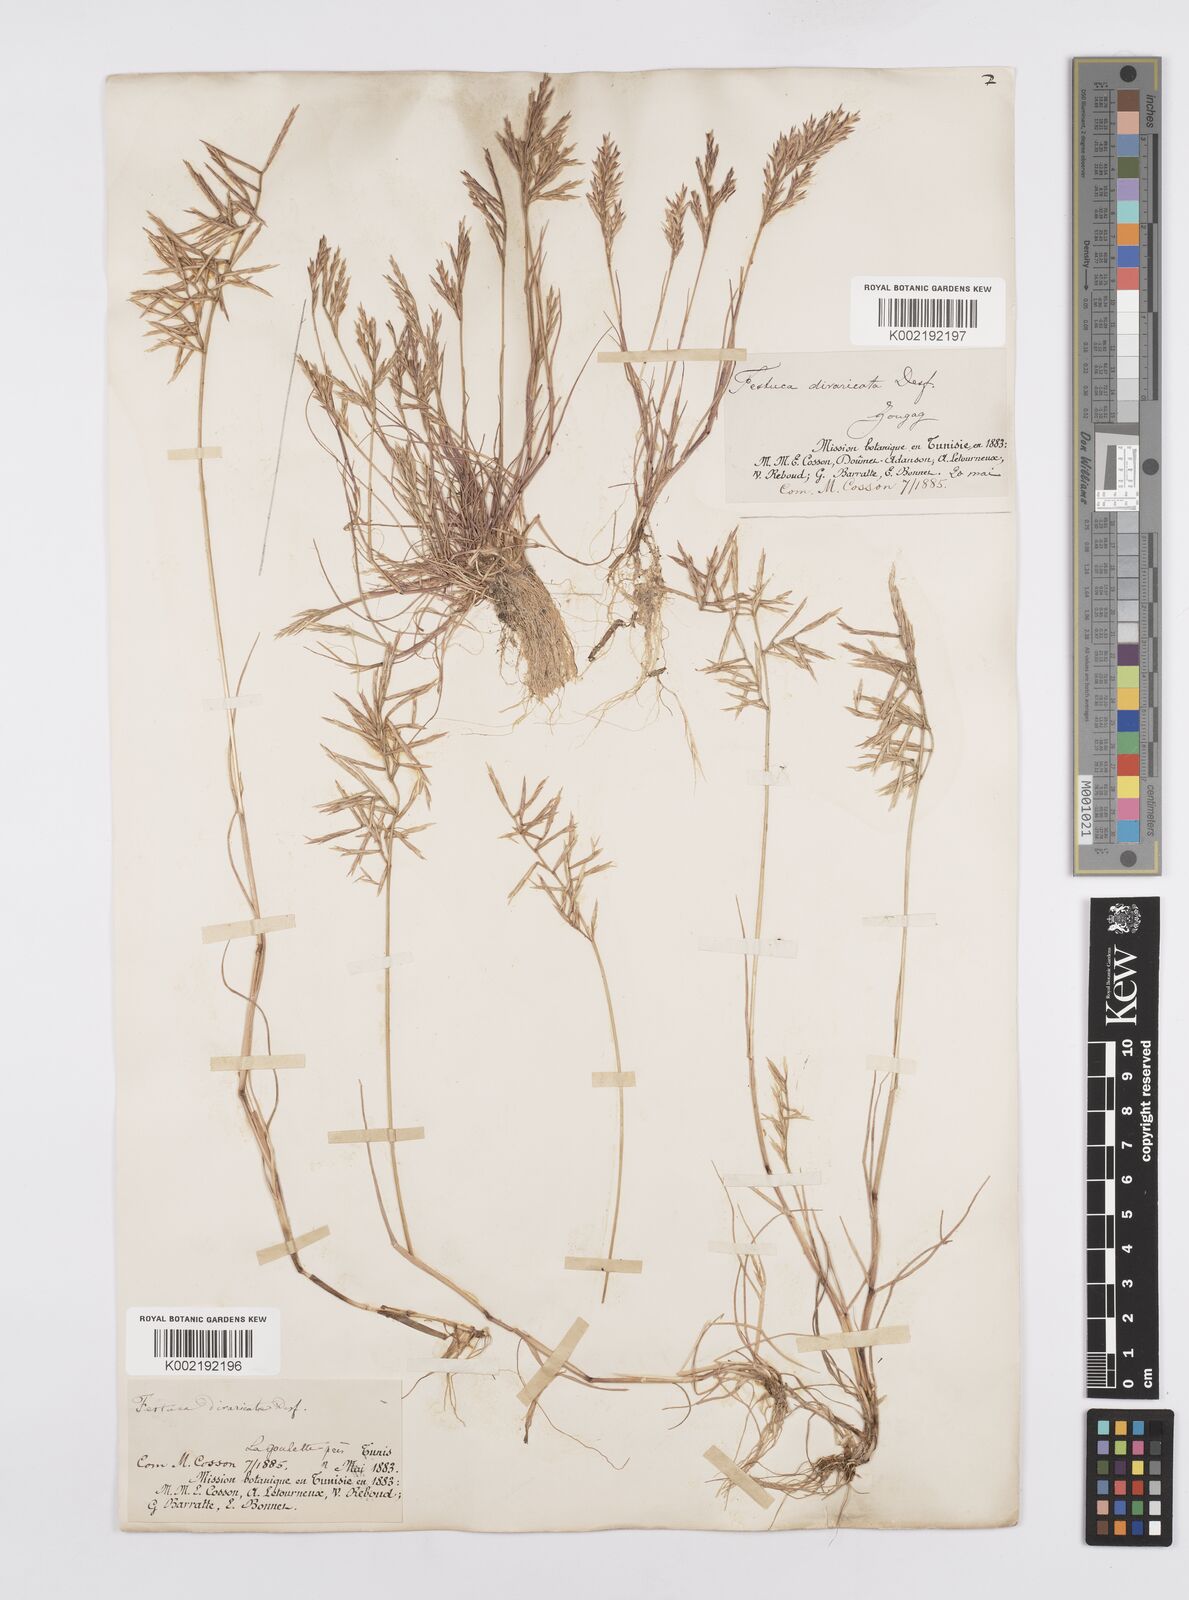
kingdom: Plantae
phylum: Tracheophyta
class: Liliopsida
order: Poales
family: Poaceae
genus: Cutandia
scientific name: Cutandia divaricata
